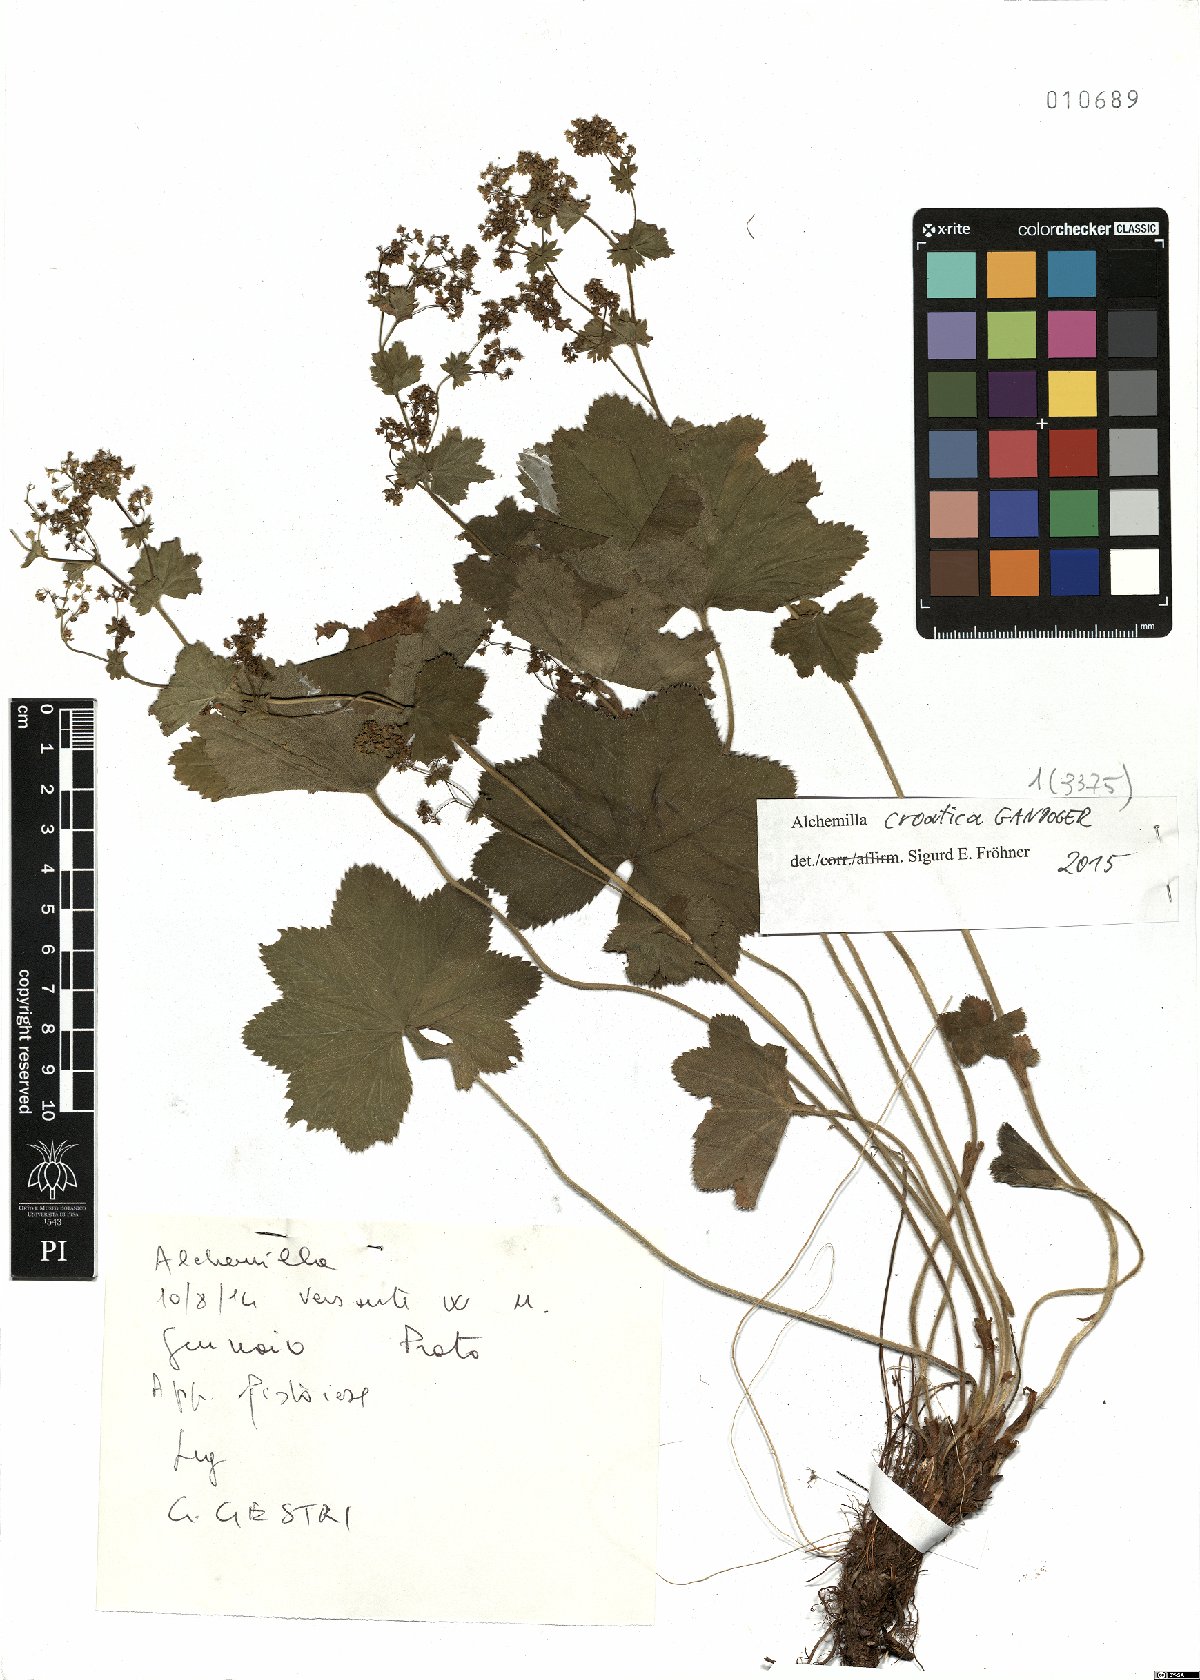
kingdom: Plantae
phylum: Tracheophyta
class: Magnoliopsida
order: Rosales
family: Rosaceae
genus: Alchemilla
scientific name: Alchemilla croatica
